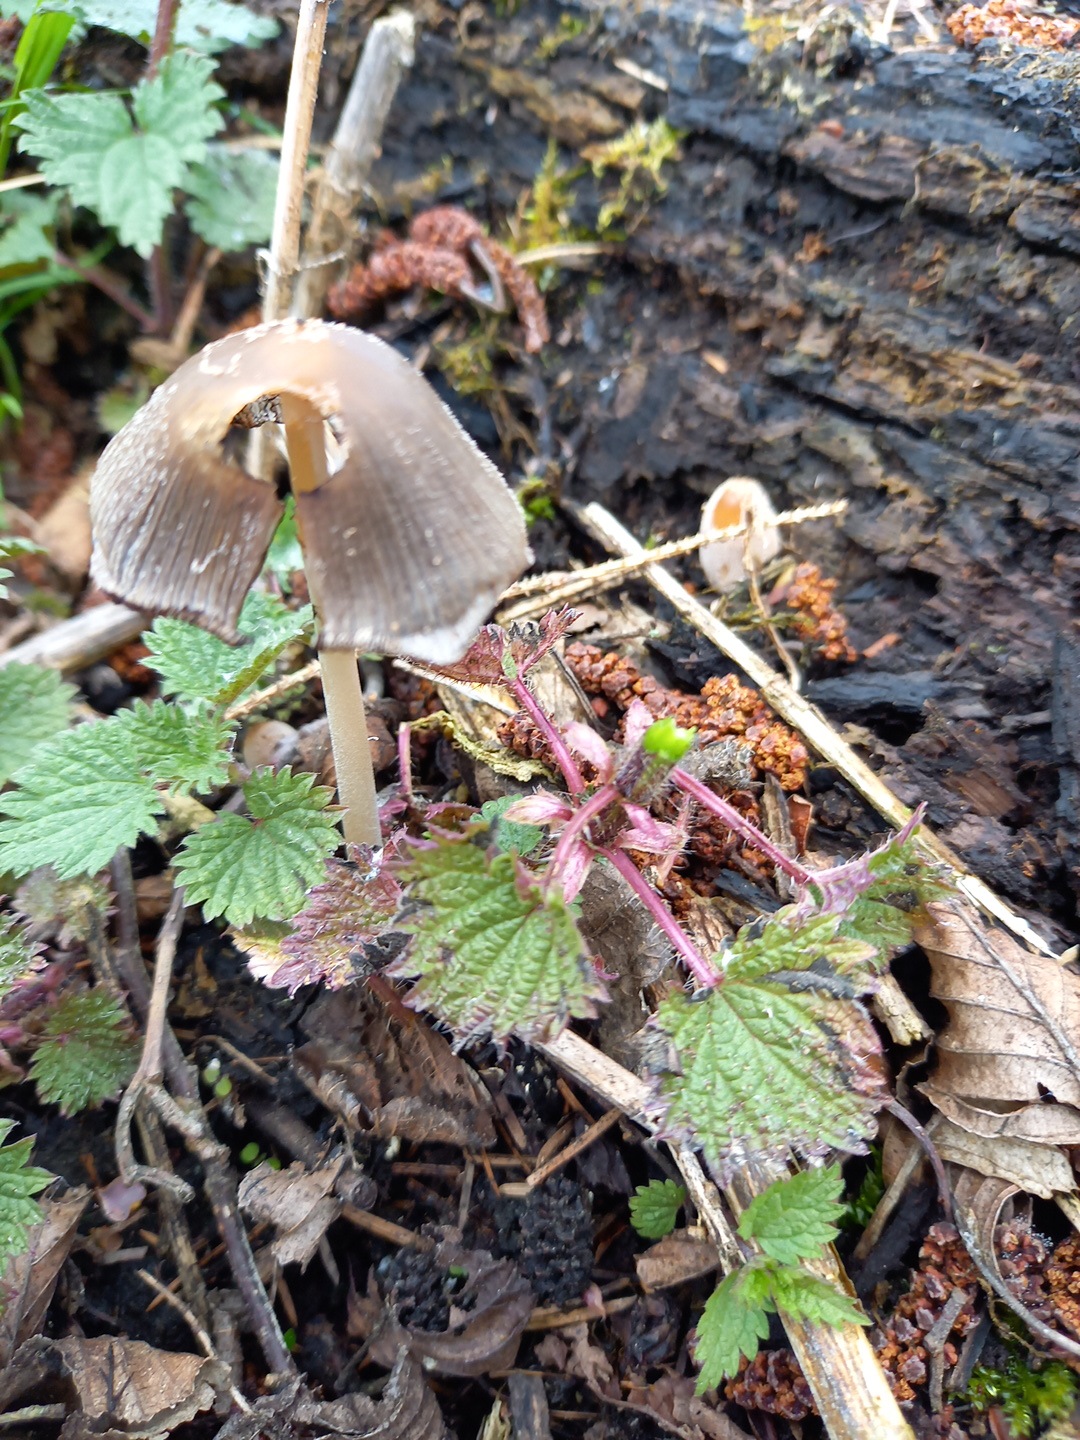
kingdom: Fungi
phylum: Basidiomycota
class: Agaricomycetes
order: Agaricales
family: Psathyrellaceae
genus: Coprinellus
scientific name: Coprinellus
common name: blækhat
